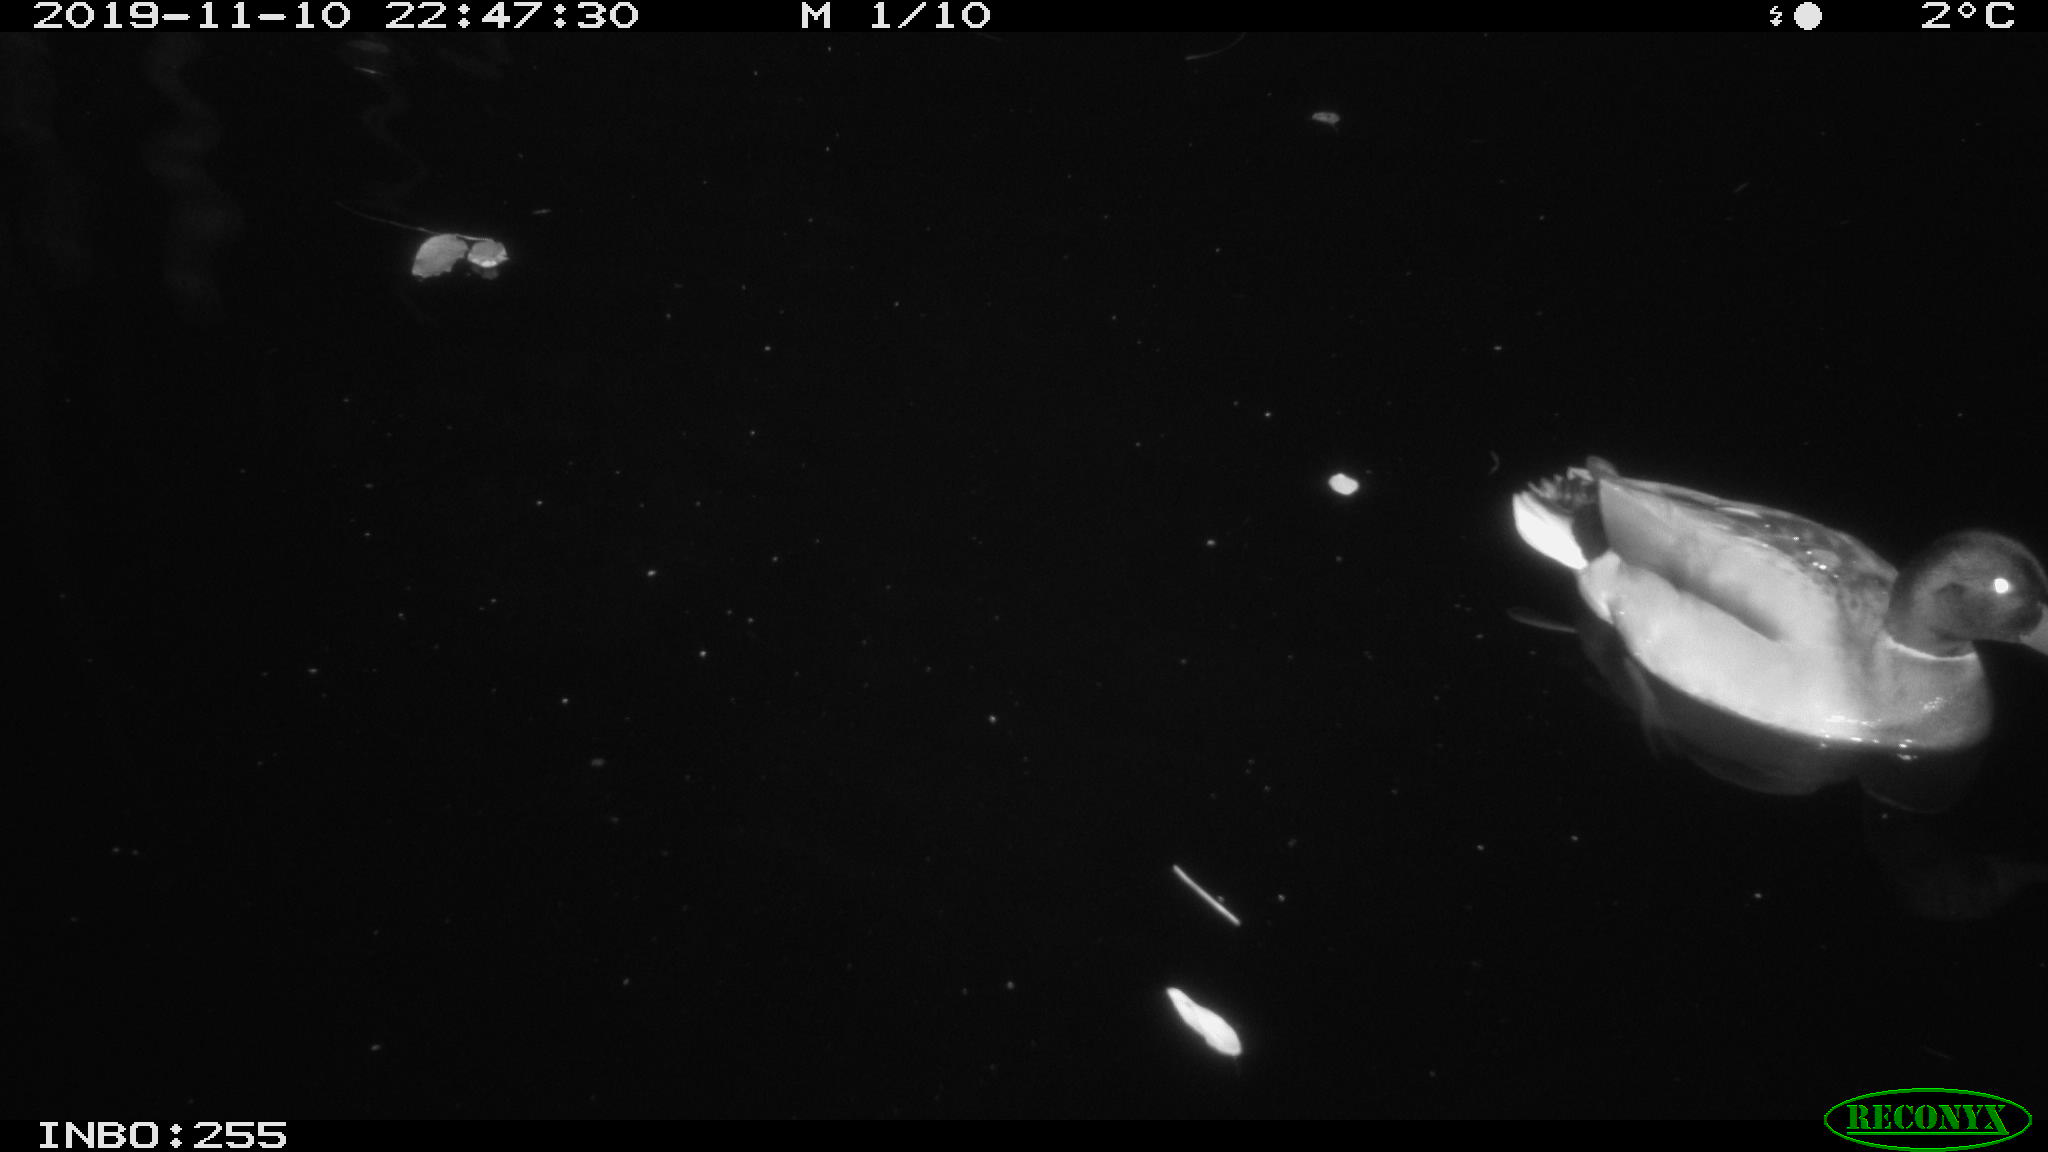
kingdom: Animalia
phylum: Chordata
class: Aves
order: Anseriformes
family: Anatidae
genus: Anas
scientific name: Anas platyrhynchos
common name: Mallard
